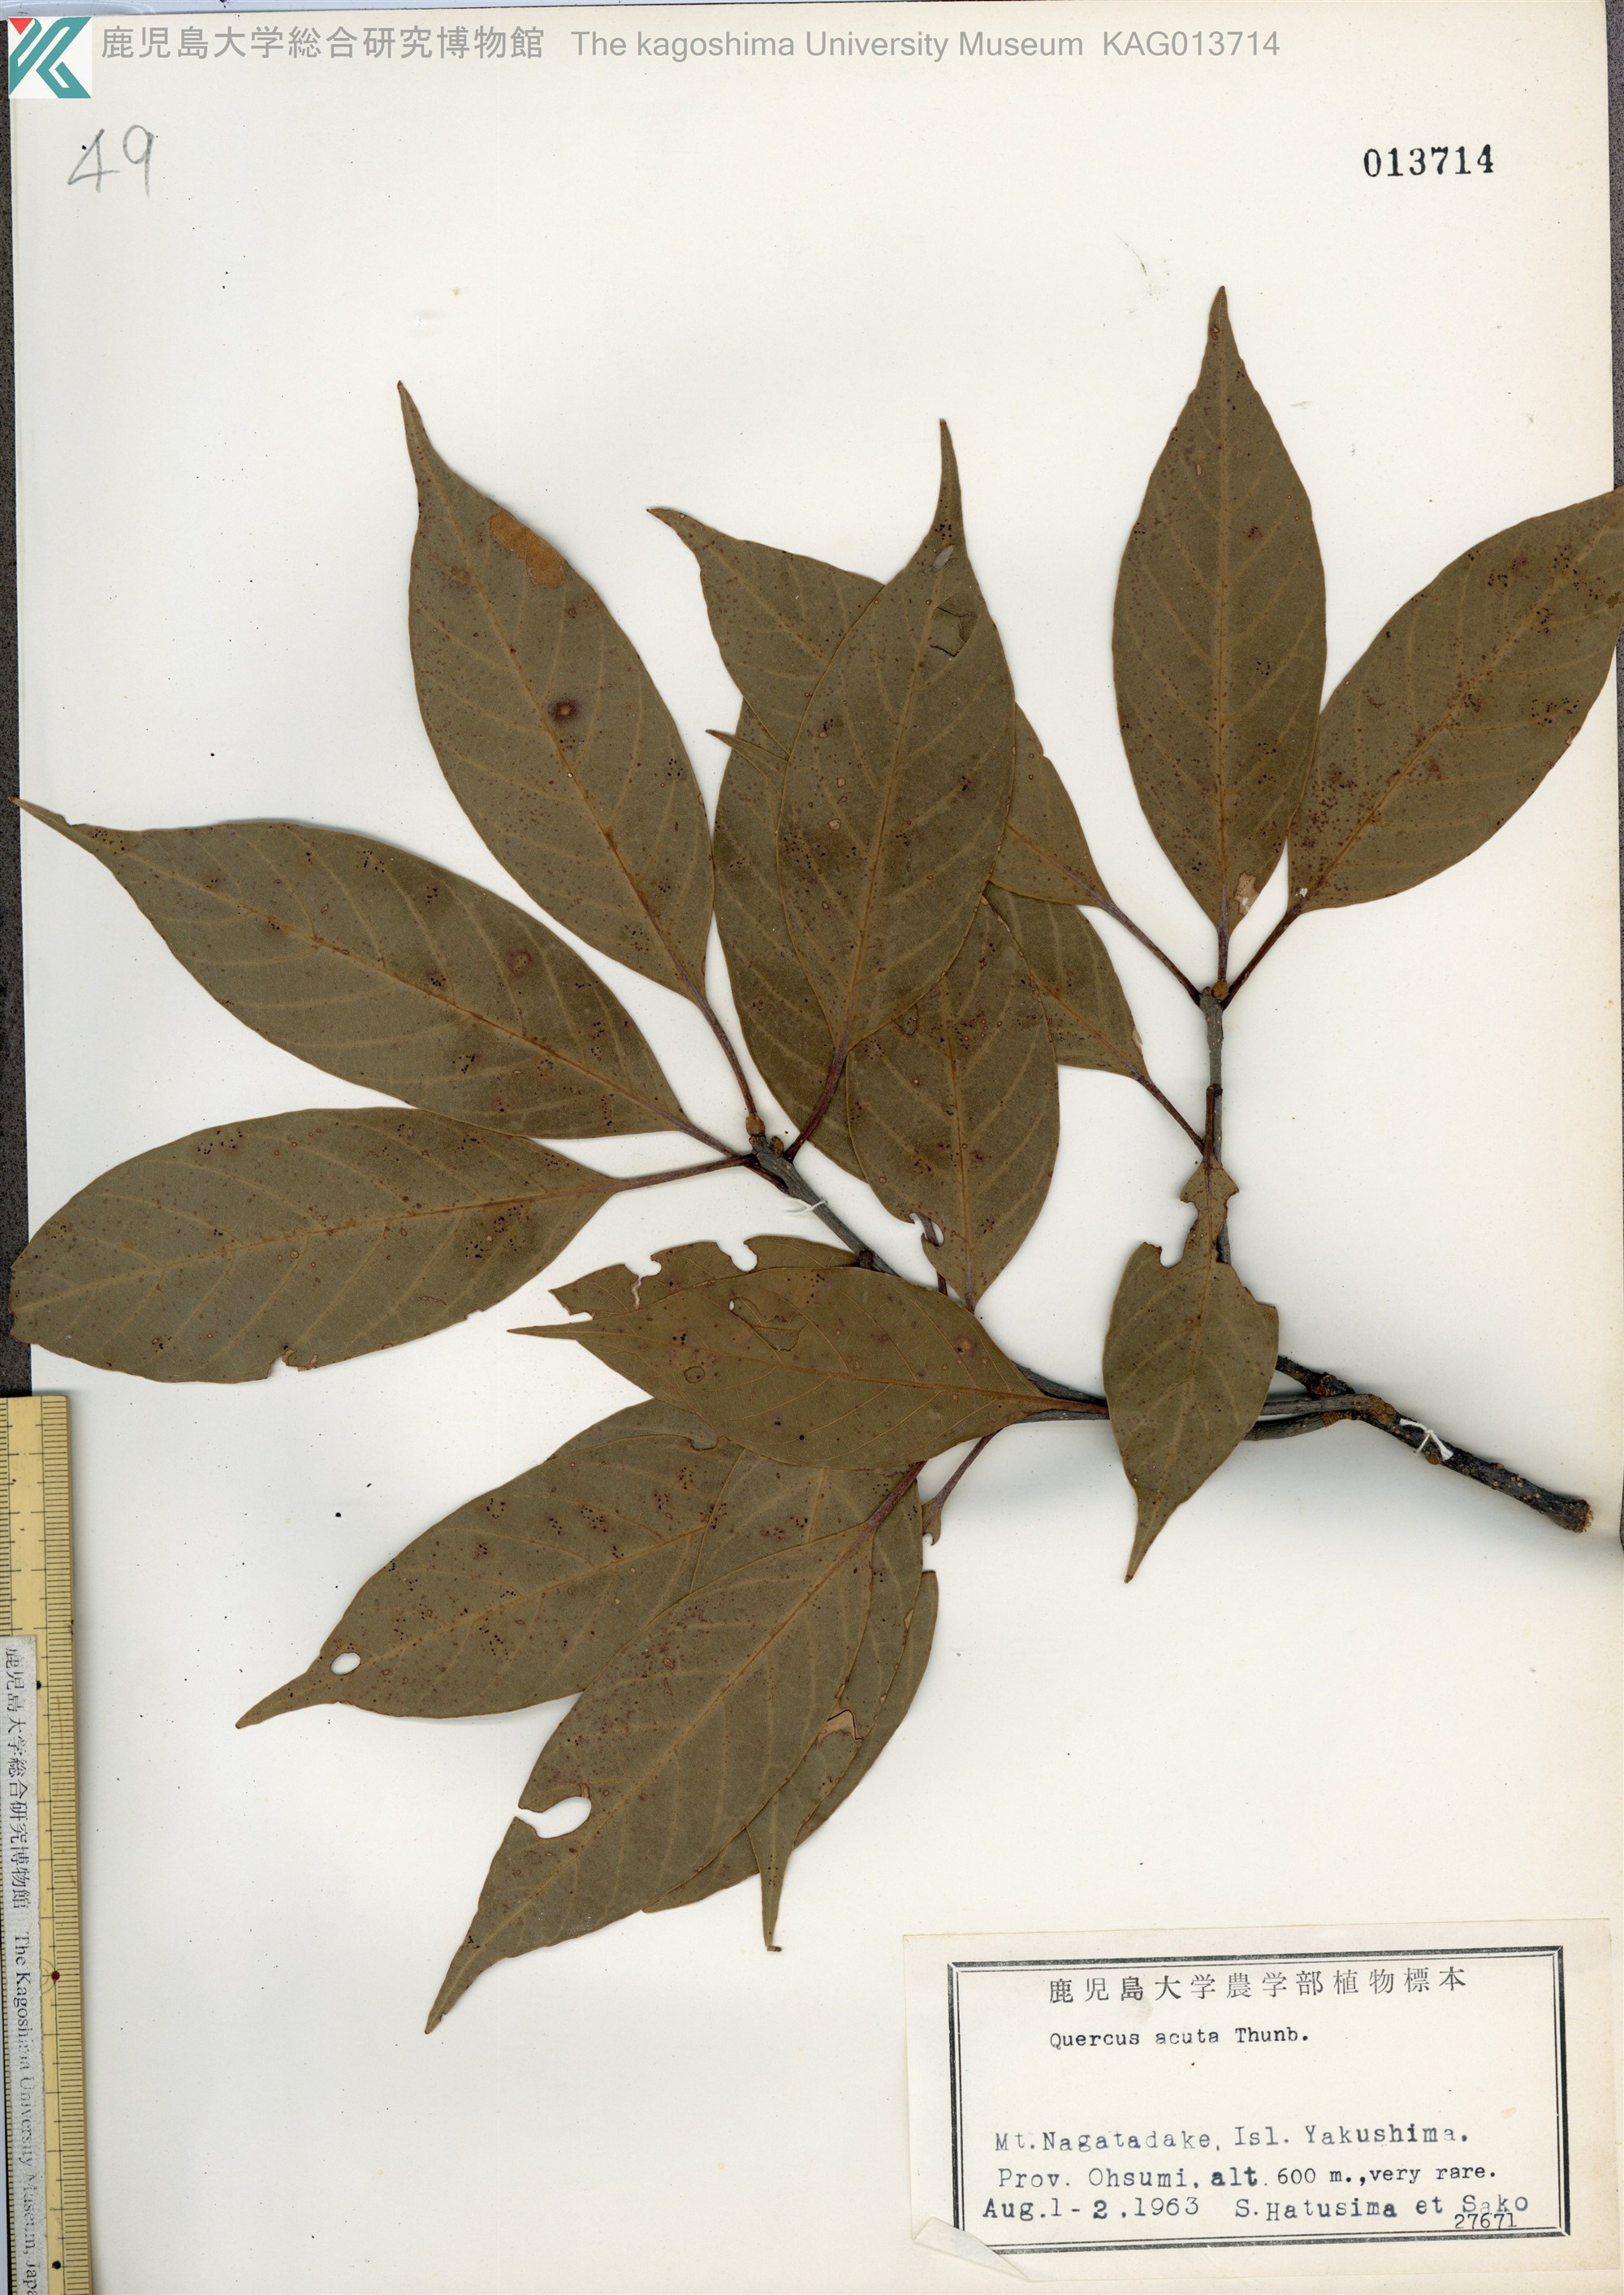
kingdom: Plantae
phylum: Tracheophyta
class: Magnoliopsida
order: Fagales
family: Fagaceae
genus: Quercus
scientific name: Quercus acuta
